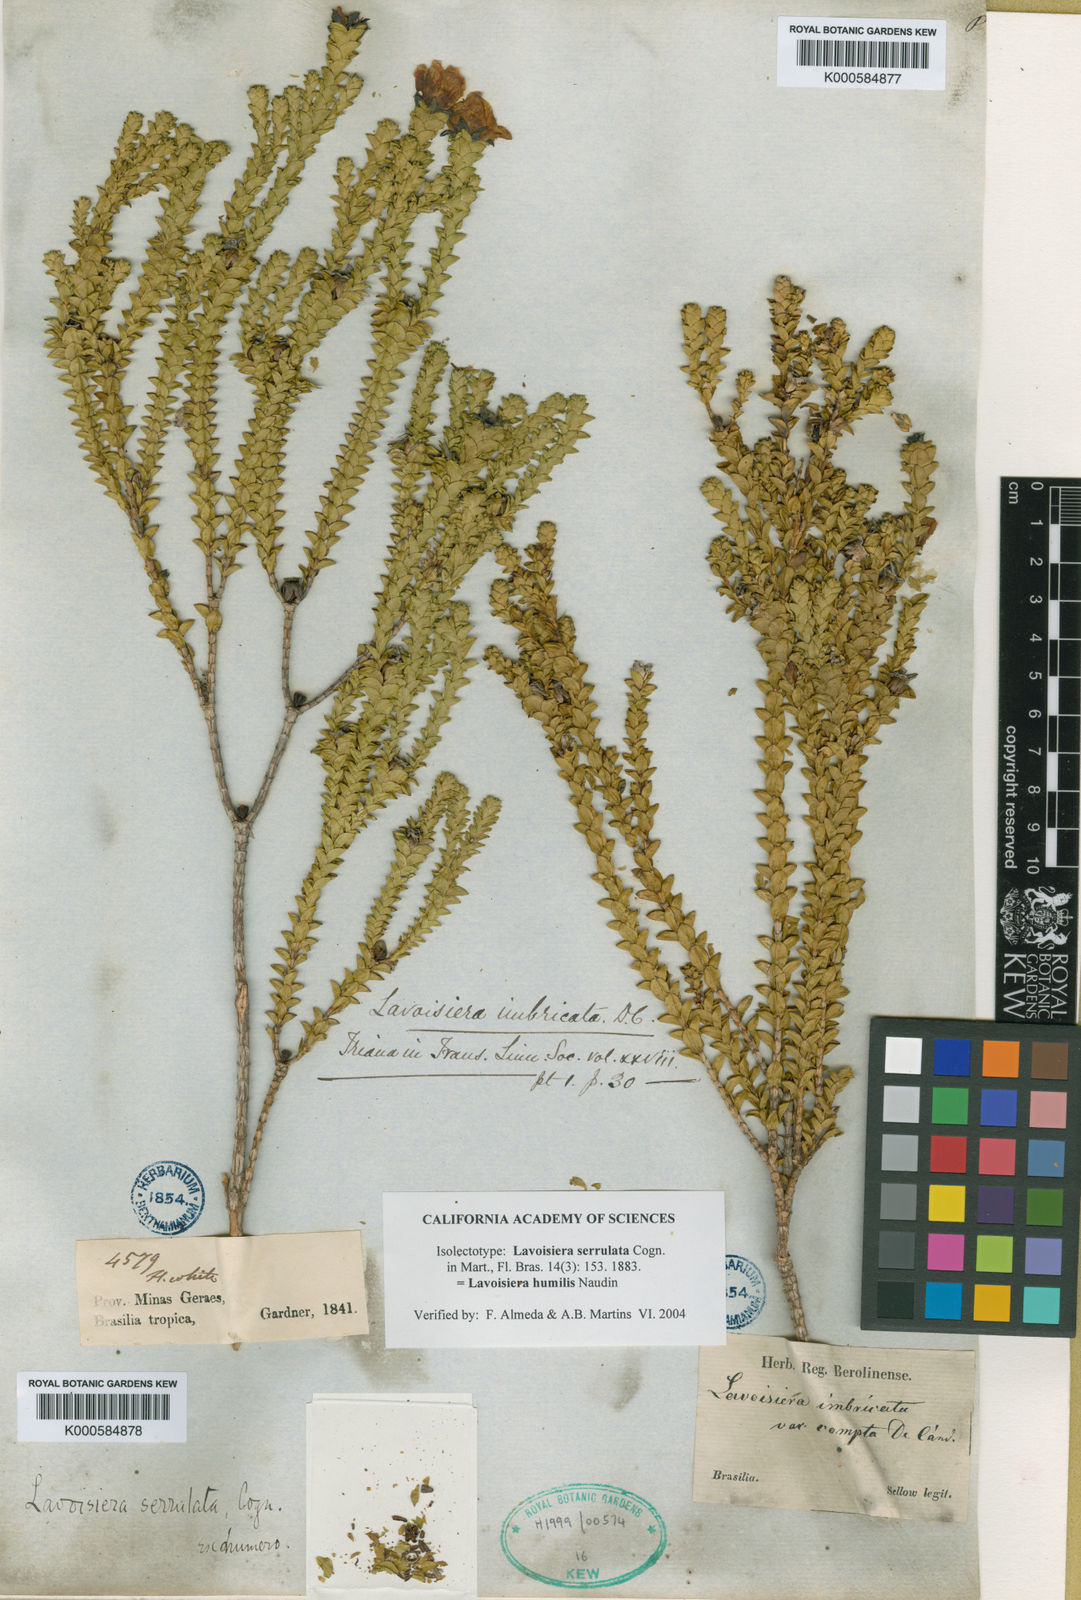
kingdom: Plantae
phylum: Tracheophyta
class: Magnoliopsida
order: Myrtales
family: Melastomataceae
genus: Microlicia
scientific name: Microlicia minor
